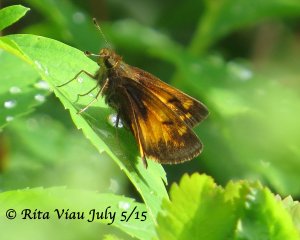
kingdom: Animalia
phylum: Arthropoda
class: Insecta
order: Lepidoptera
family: Hesperiidae
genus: Lon
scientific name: Lon hobomok
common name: Hobomok Skipper
